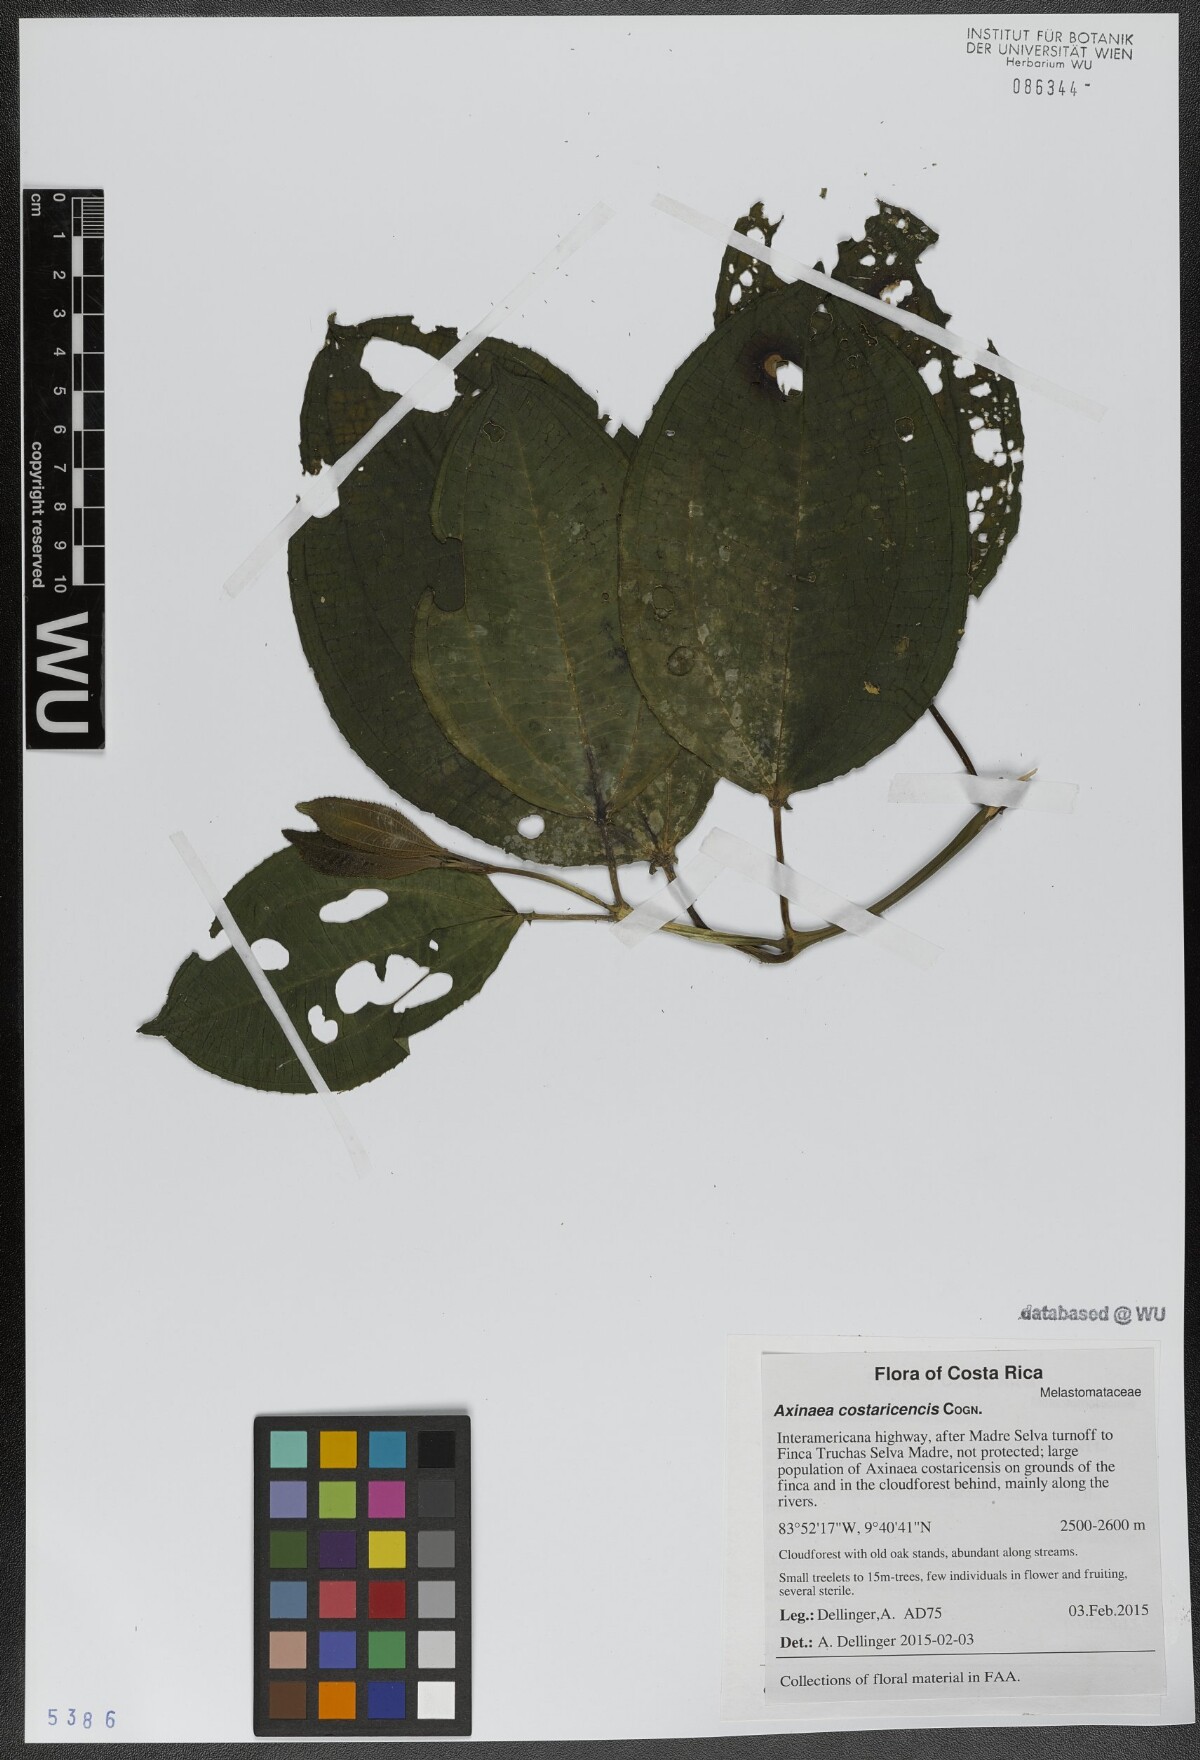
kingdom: Plantae
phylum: Tracheophyta
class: Magnoliopsida
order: Myrtales
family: Melastomataceae
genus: Axinaea
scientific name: Axinaea costaricencis
